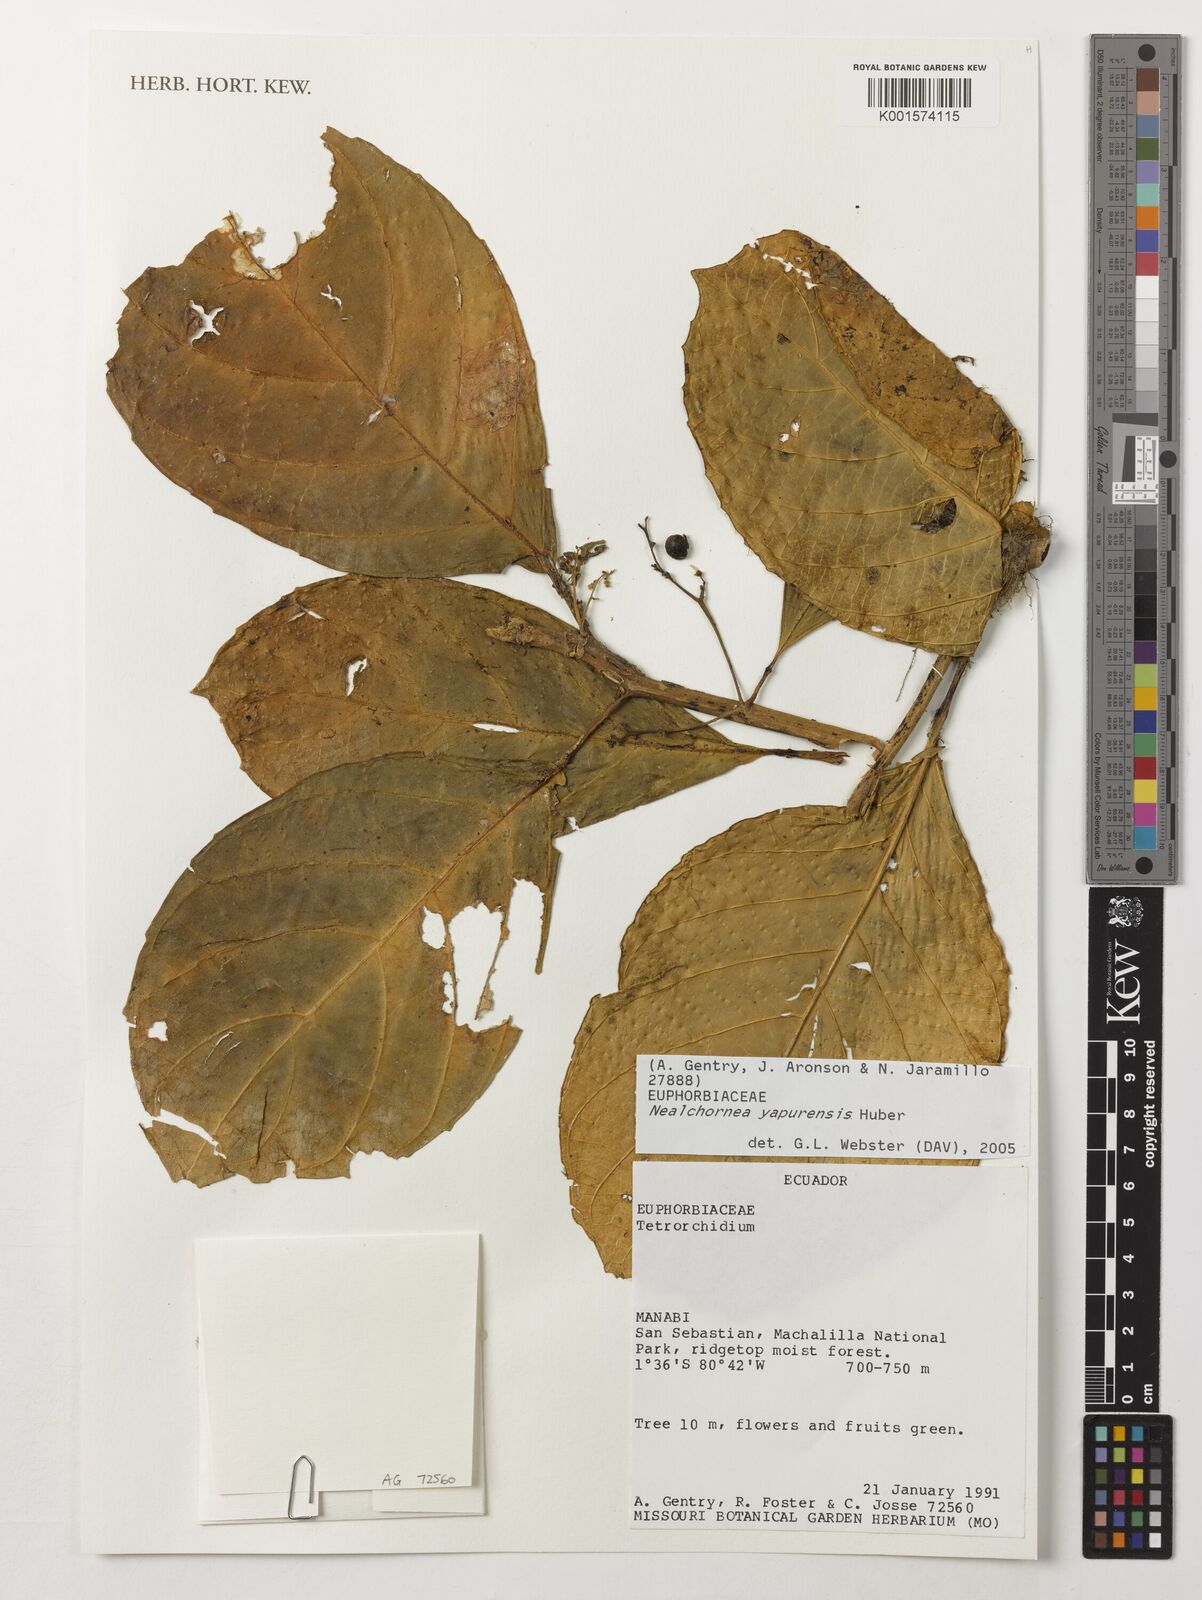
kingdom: Plantae
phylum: Tracheophyta
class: Magnoliopsida
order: Malpighiales
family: Euphorbiaceae
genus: Nealchornea
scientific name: Nealchornea yapurensis
